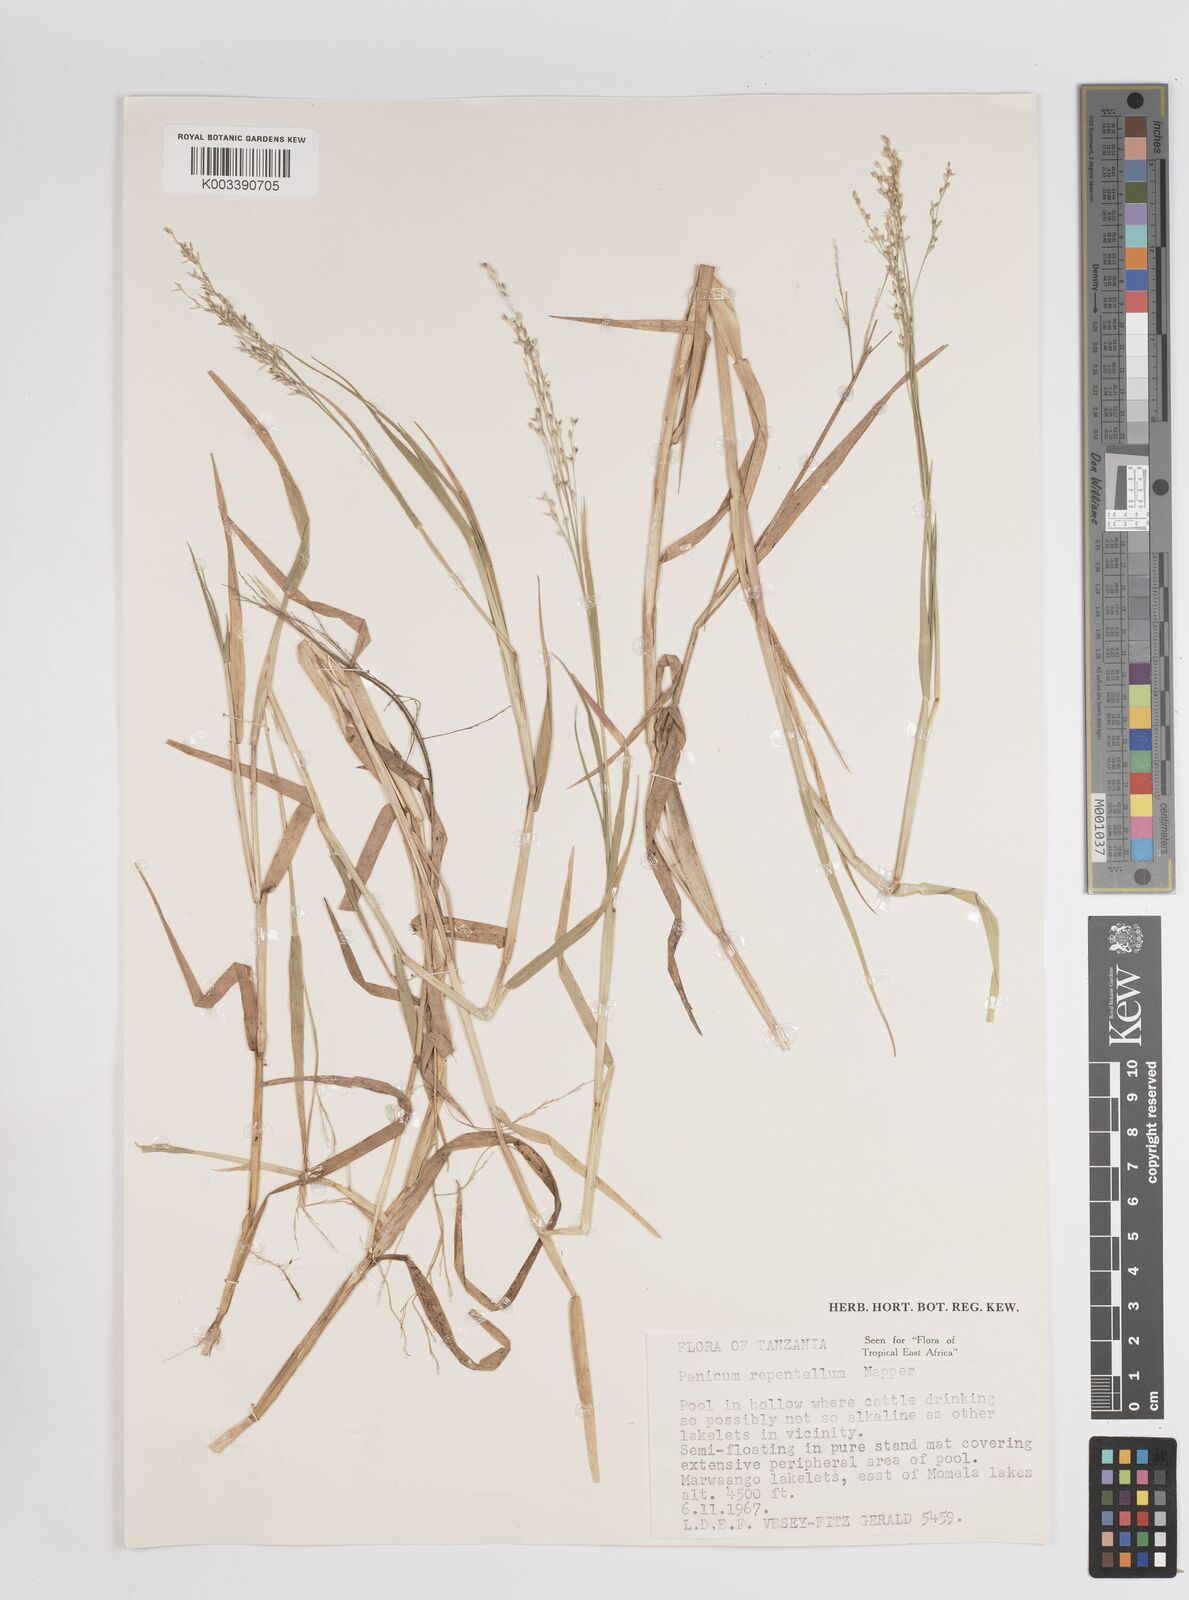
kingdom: Plantae
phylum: Tracheophyta
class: Liliopsida
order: Poales
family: Poaceae
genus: Panicum
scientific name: Panicum hygrocharis
